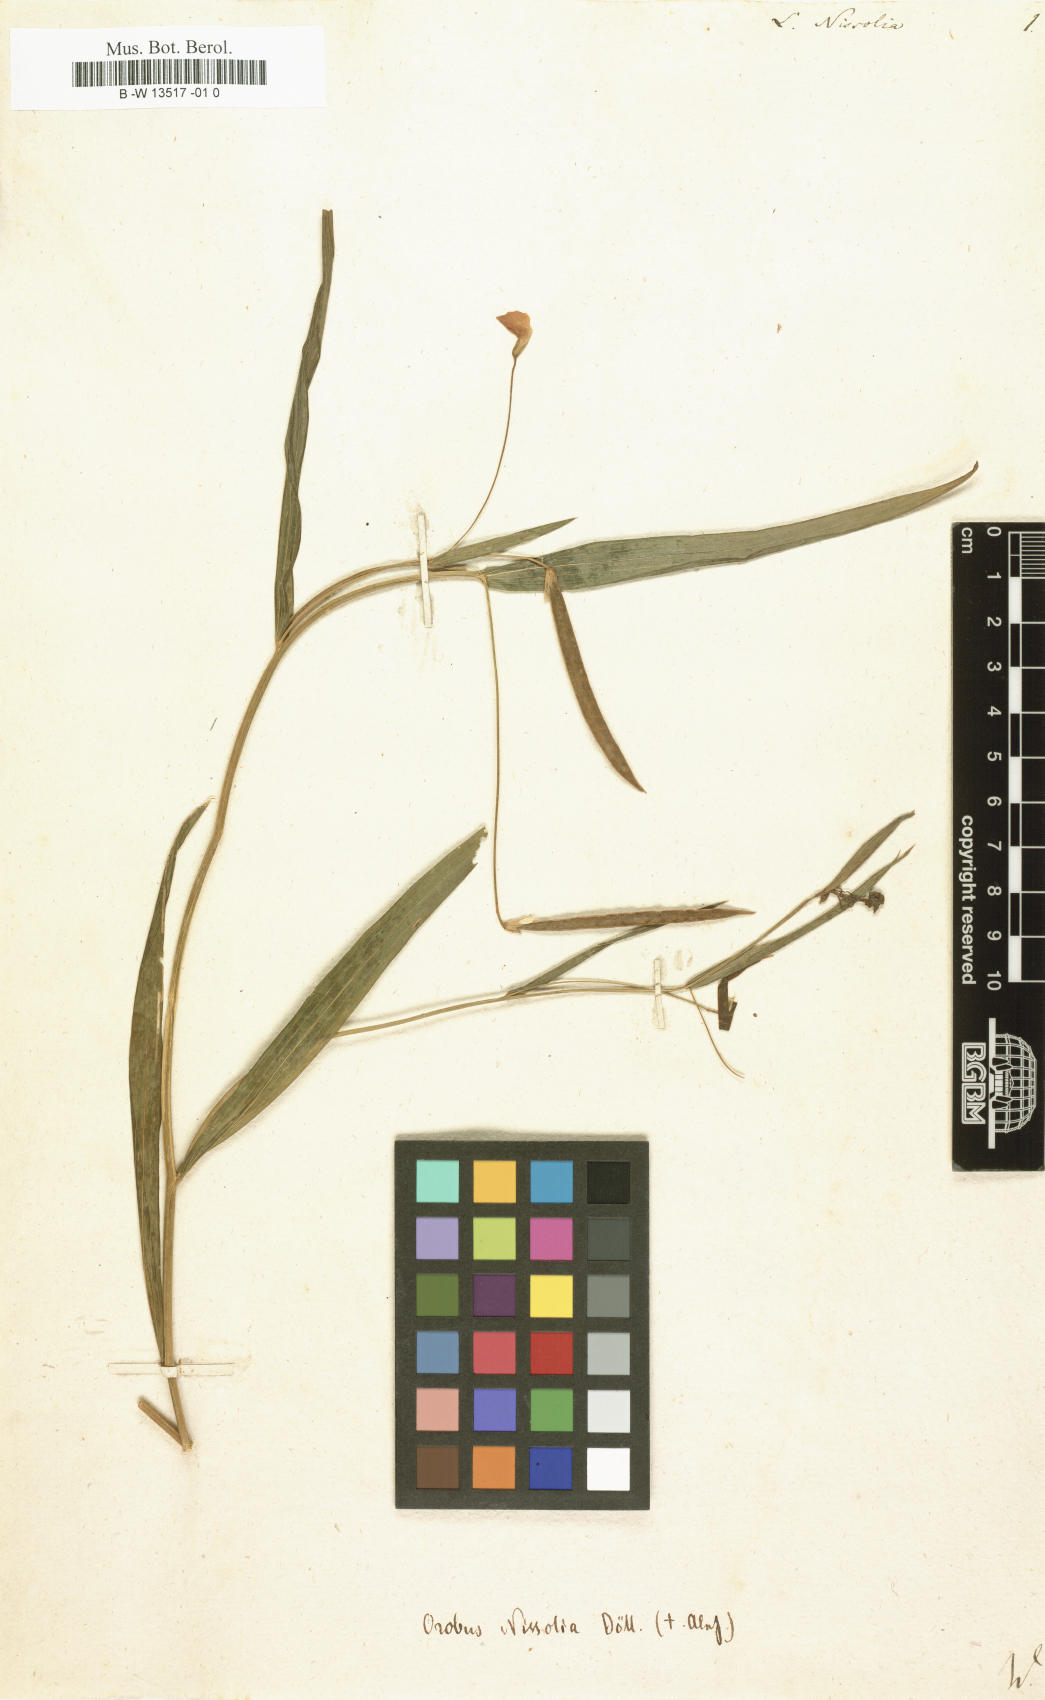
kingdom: Plantae
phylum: Tracheophyta
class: Magnoliopsida
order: Fabales
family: Fabaceae
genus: Lathyrus
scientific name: Lathyrus nissolia
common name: Grass vetchling
